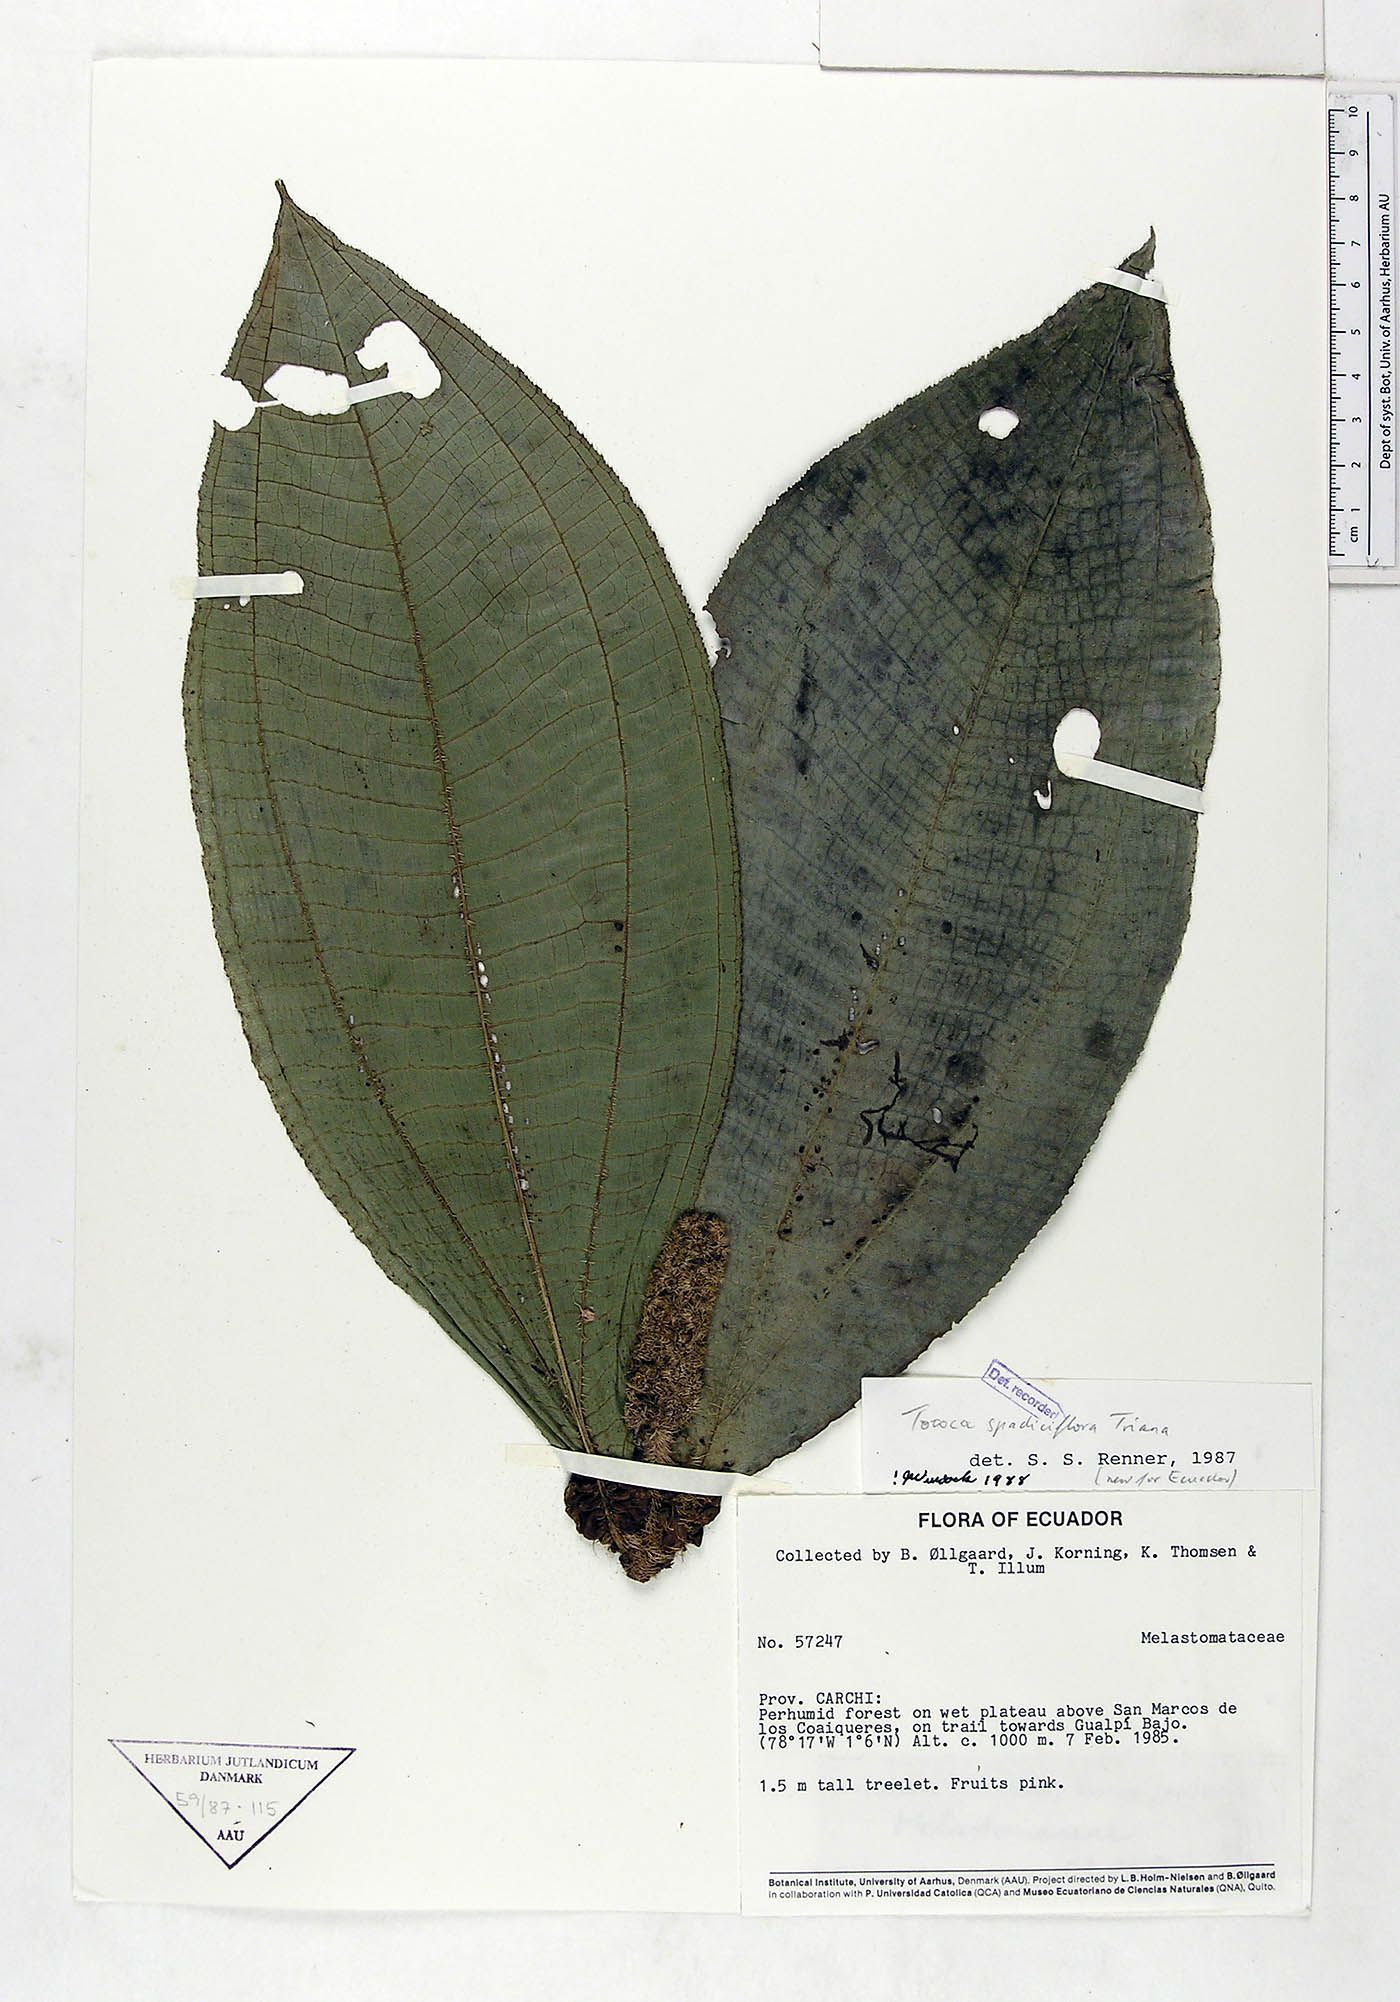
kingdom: Plantae
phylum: Tracheophyta
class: Magnoliopsida
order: Myrtales
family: Melastomataceae
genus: Miconia
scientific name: Miconia spadiciflora
